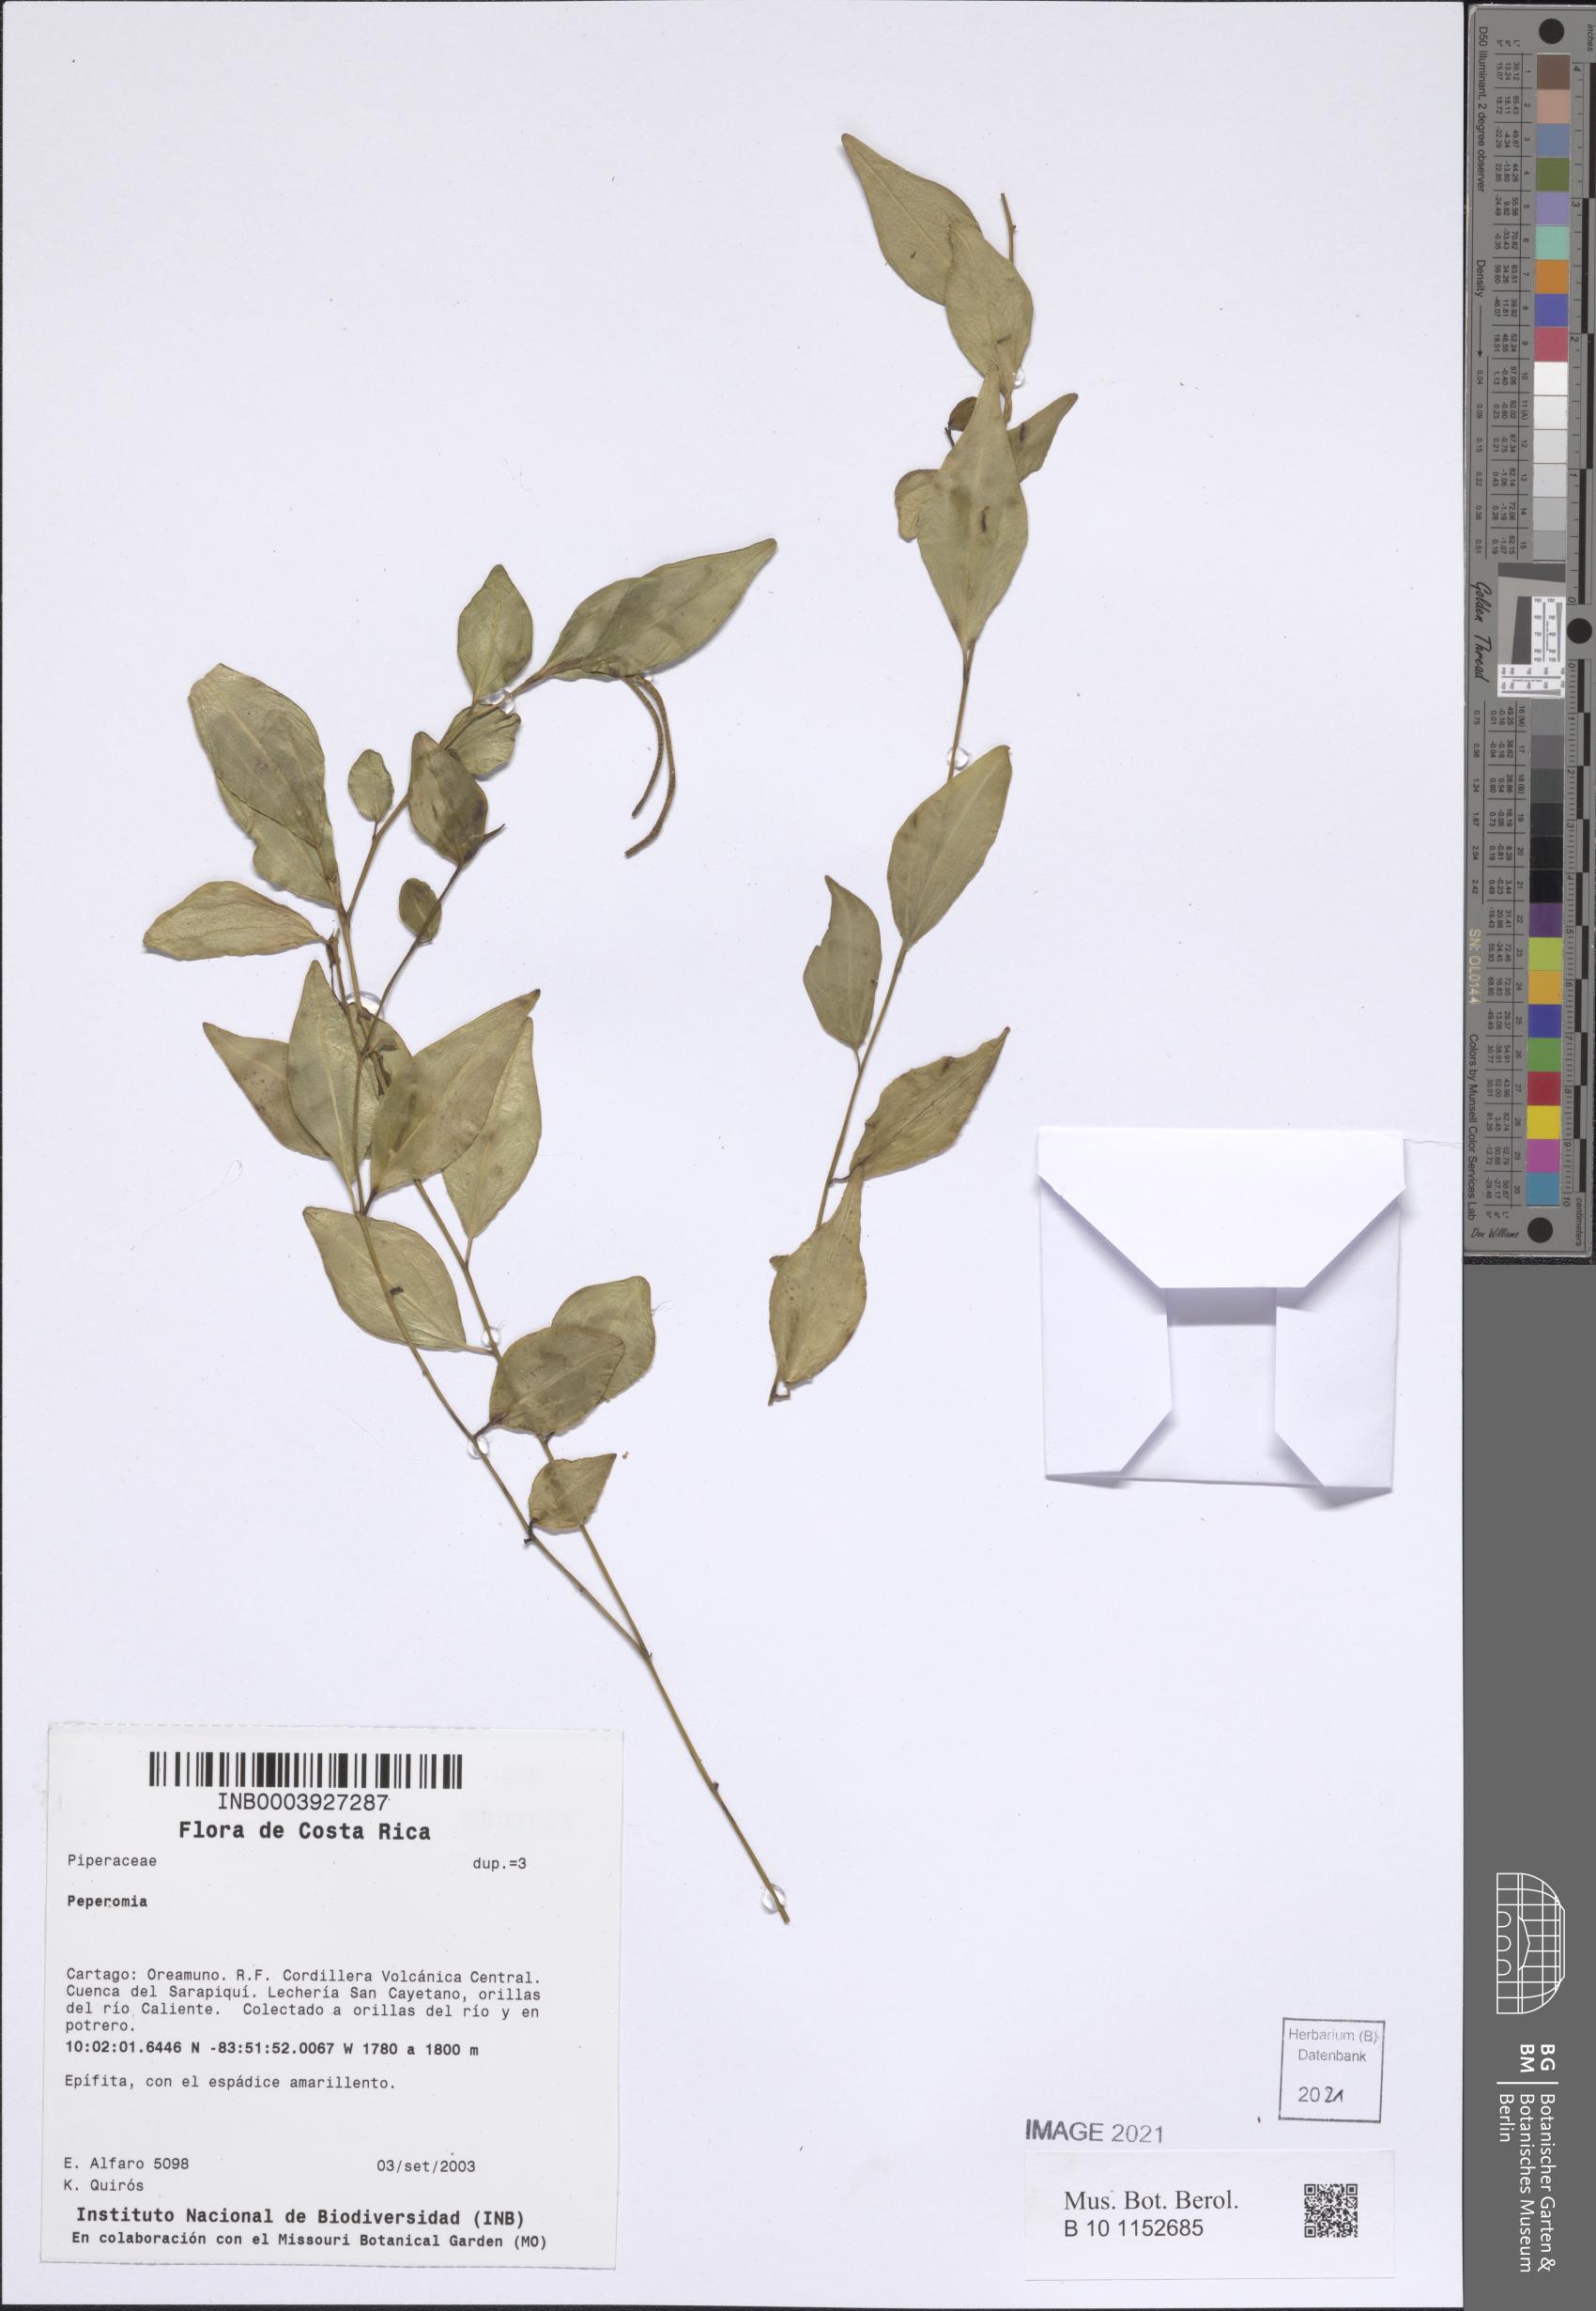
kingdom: Plantae
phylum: Tracheophyta
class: Magnoliopsida
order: Piperales
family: Piperaceae
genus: Peperomia
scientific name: Peperomia
